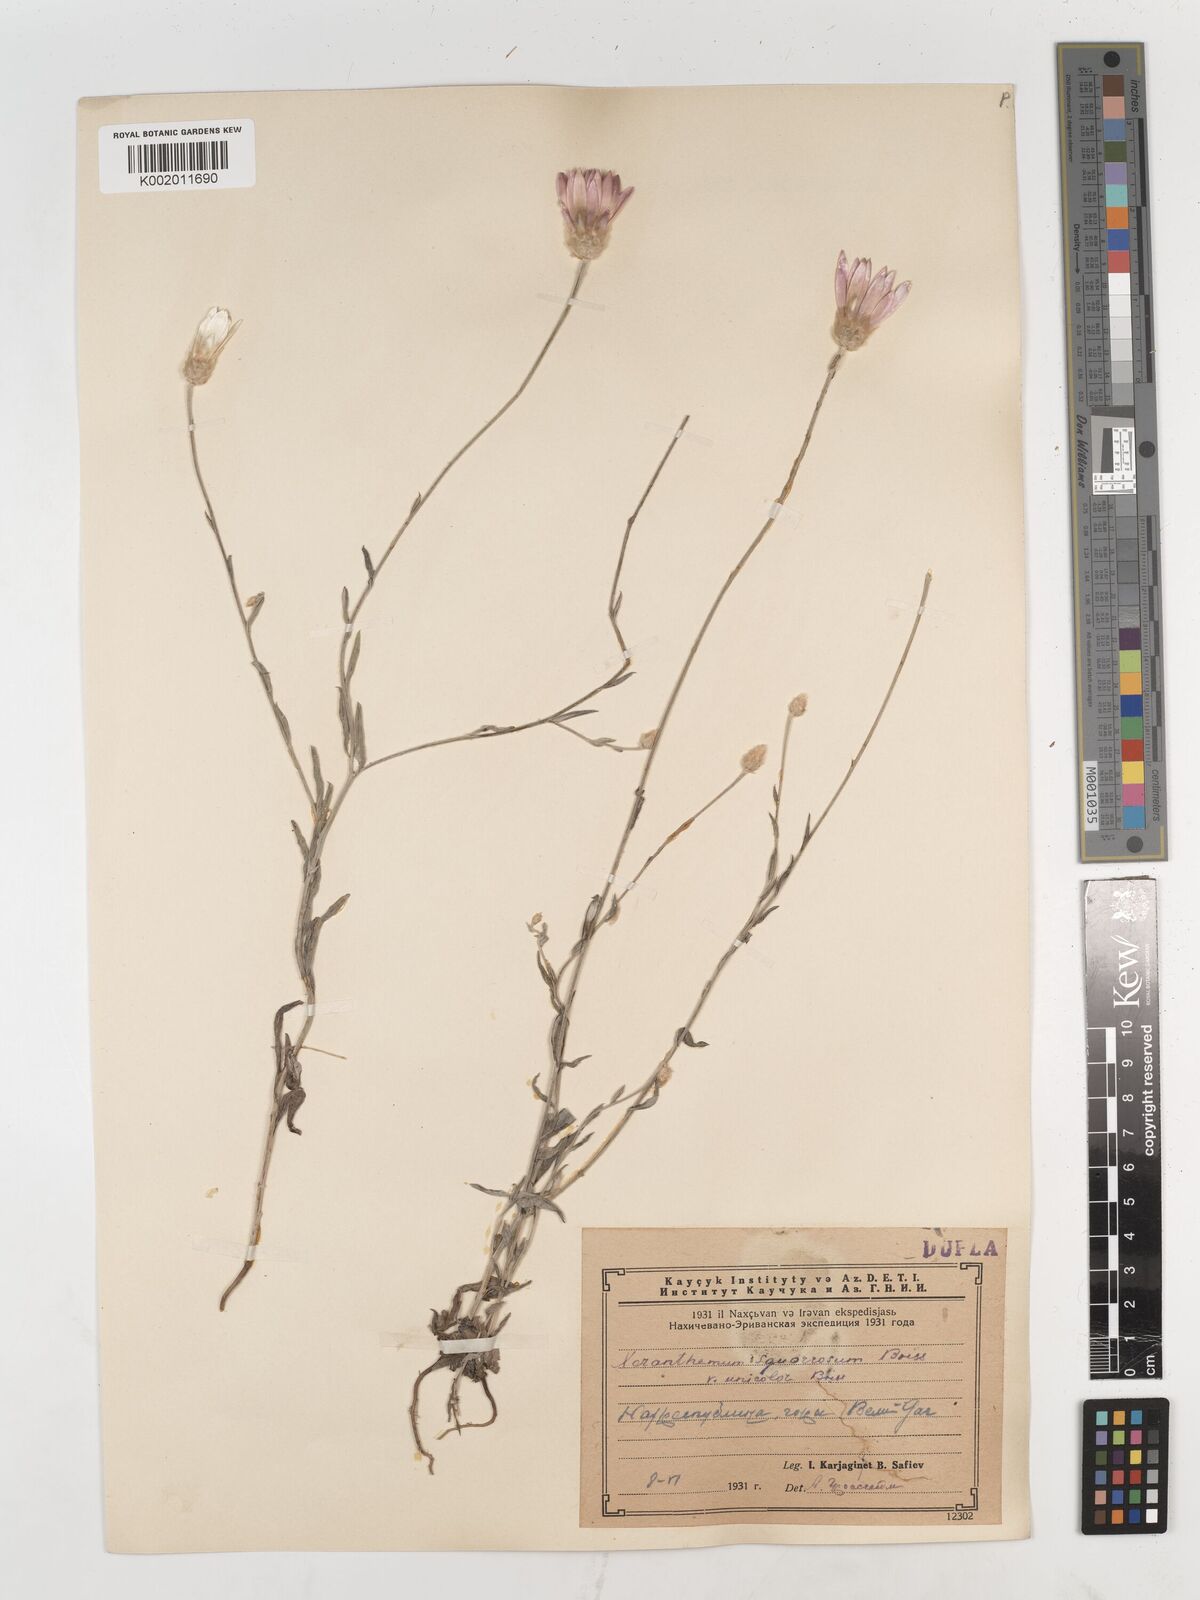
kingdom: Plantae
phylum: Tracheophyta
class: Magnoliopsida
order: Asterales
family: Asteraceae
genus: Xeranthemum
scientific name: Xeranthemum squarrosum
